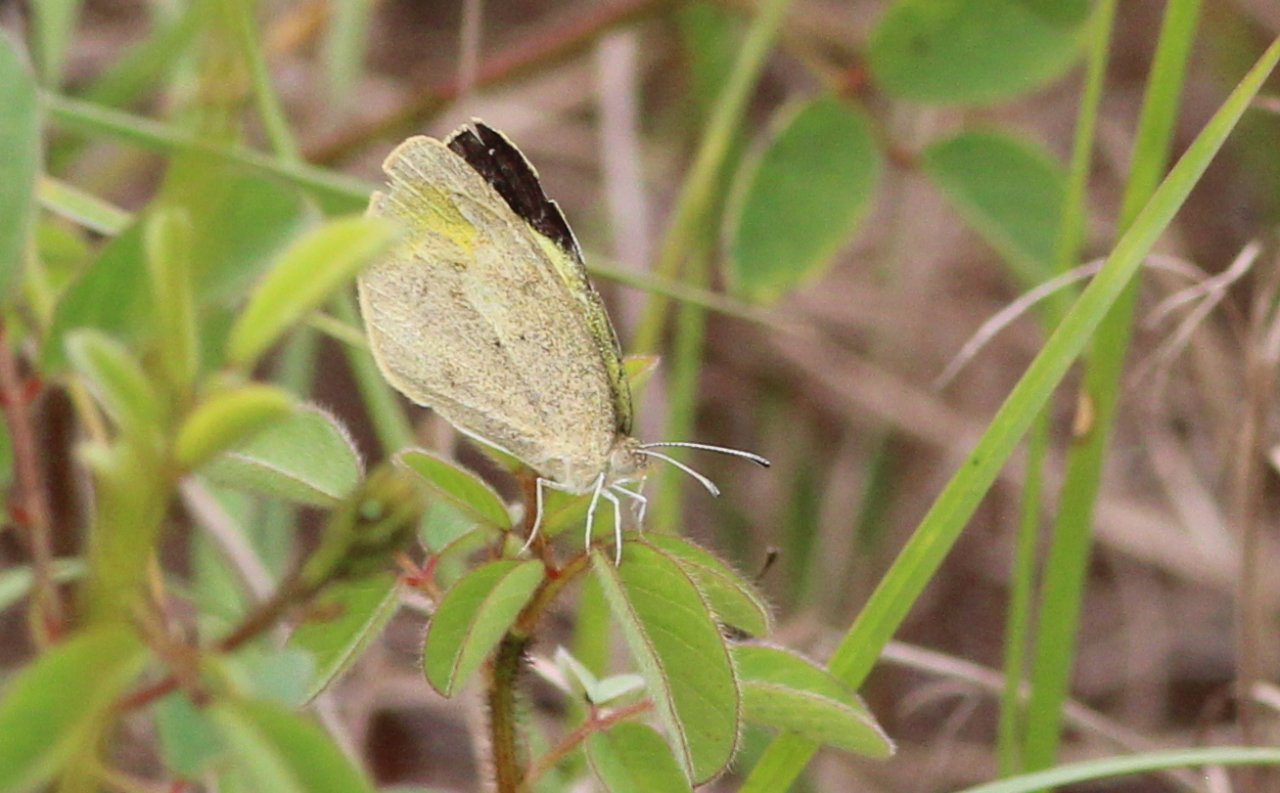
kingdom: Animalia
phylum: Arthropoda
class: Insecta
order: Lepidoptera
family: Pieridae
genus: Eurema
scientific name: Eurema daira
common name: Barred Yellow
